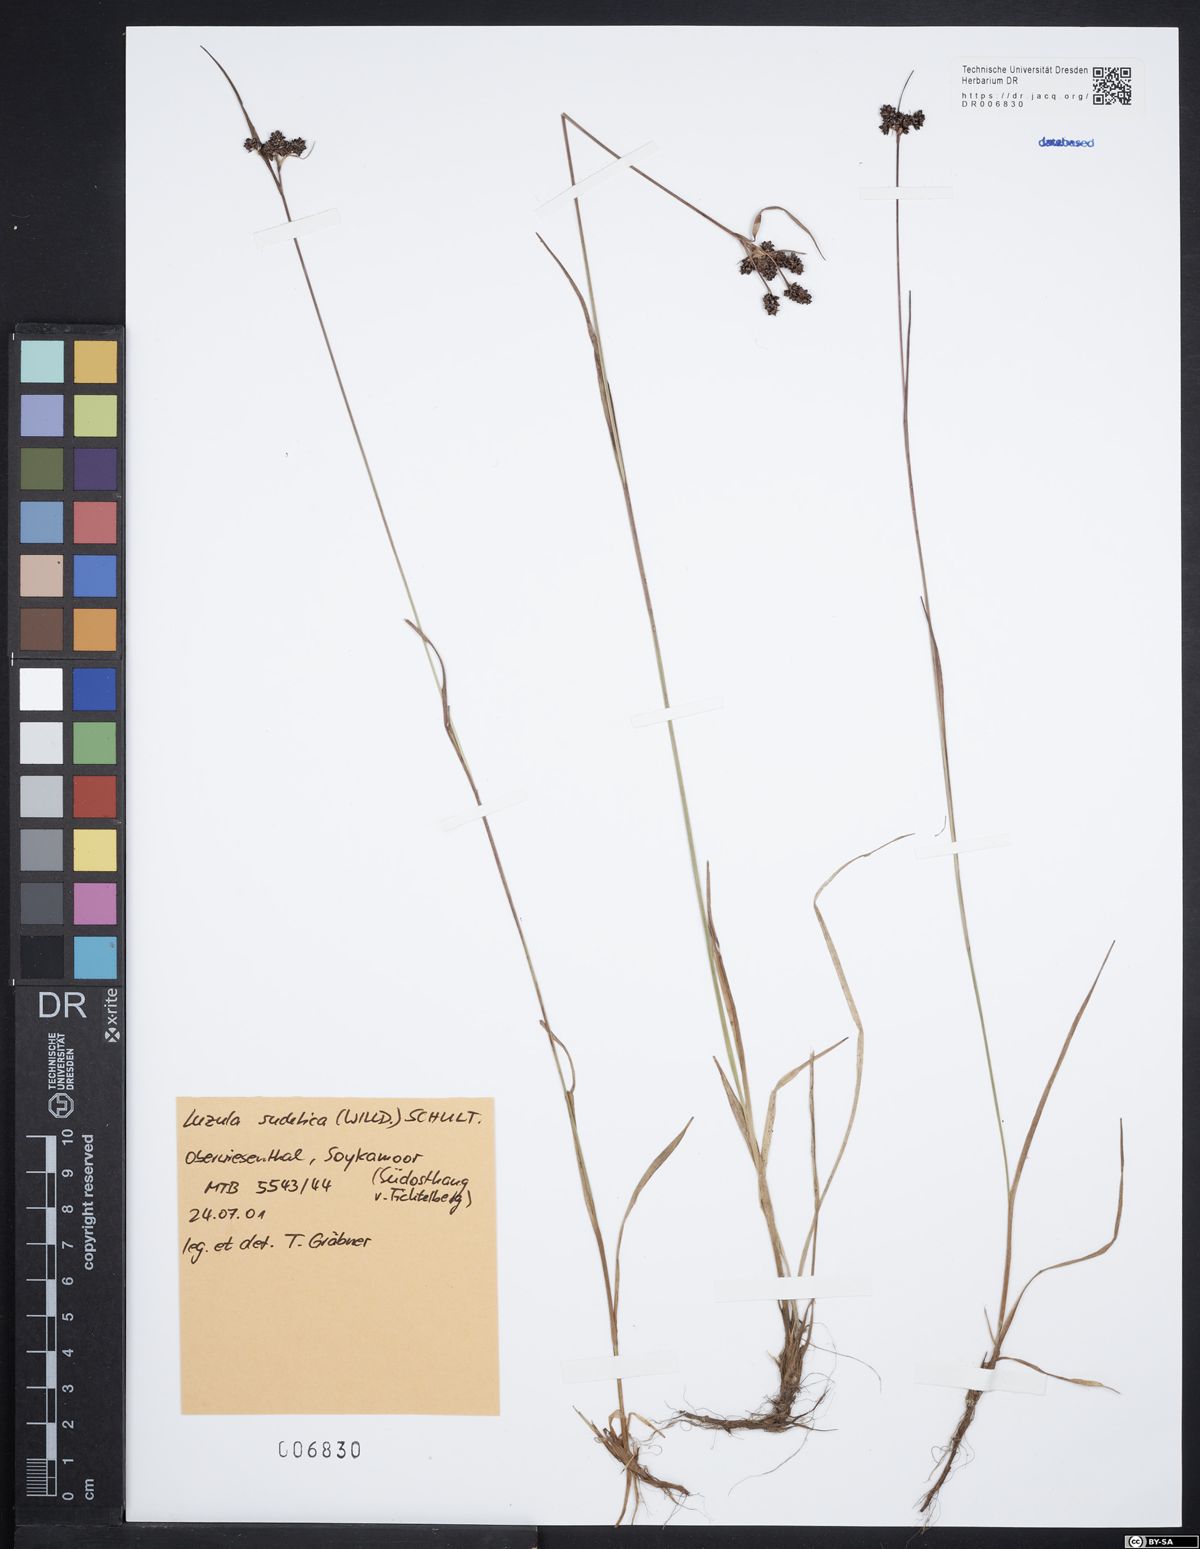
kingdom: Plantae
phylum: Tracheophyta
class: Liliopsida
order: Poales
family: Juncaceae
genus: Luzula
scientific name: Luzula sudetica
